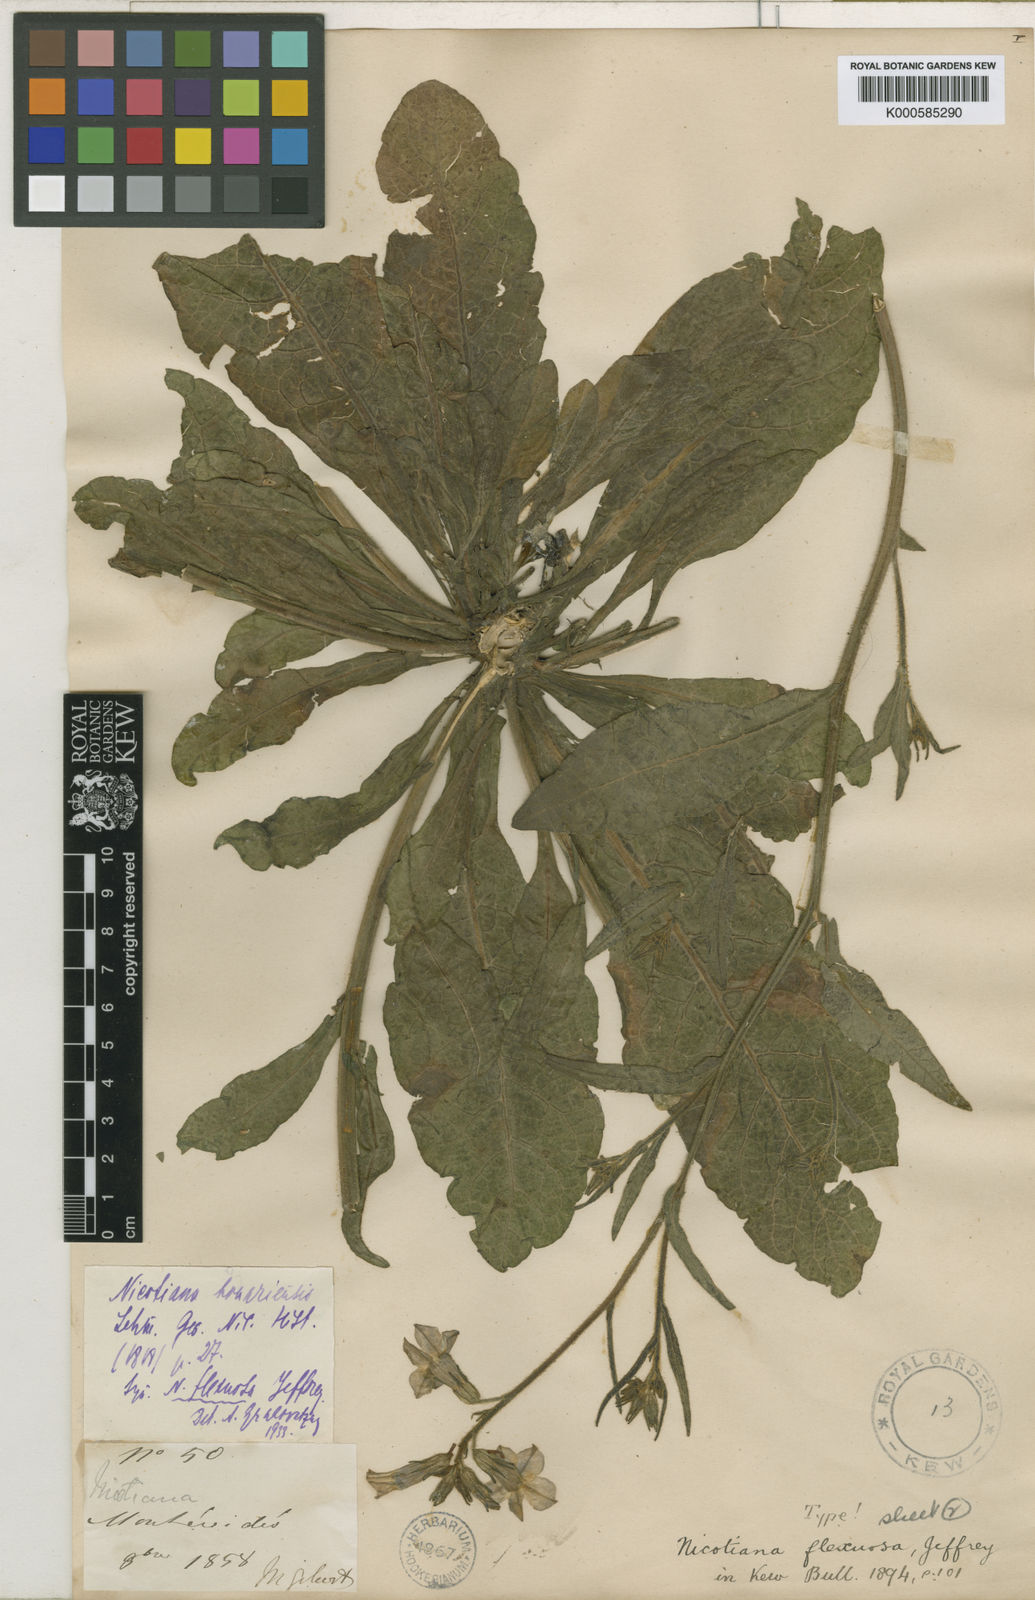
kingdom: Plantae
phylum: Tracheophyta
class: Magnoliopsida
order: Solanales
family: Solanaceae
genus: Nicotiana
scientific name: Nicotiana bonariensis
